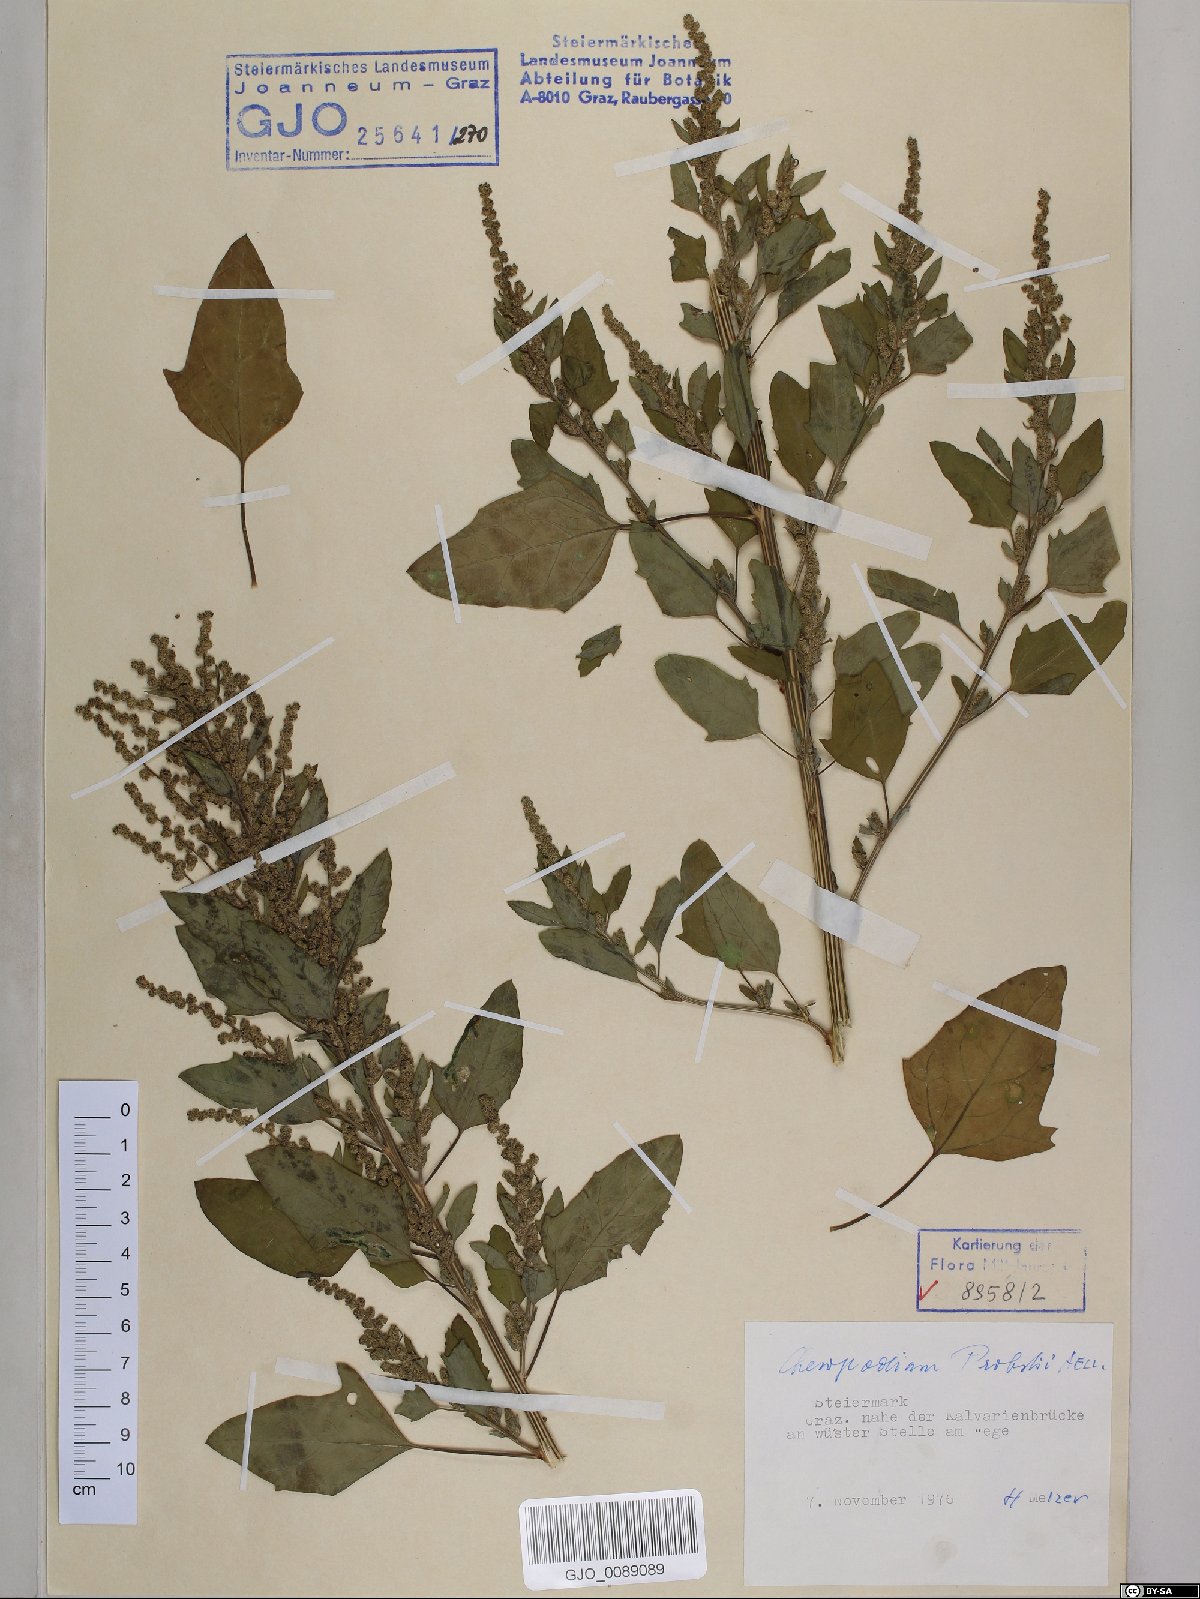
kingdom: Plantae
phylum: Tracheophyta
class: Magnoliopsida
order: Caryophyllales
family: Amaranthaceae
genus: Chenopodium
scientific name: Chenopodium probstii
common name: Probst's goosefoot
